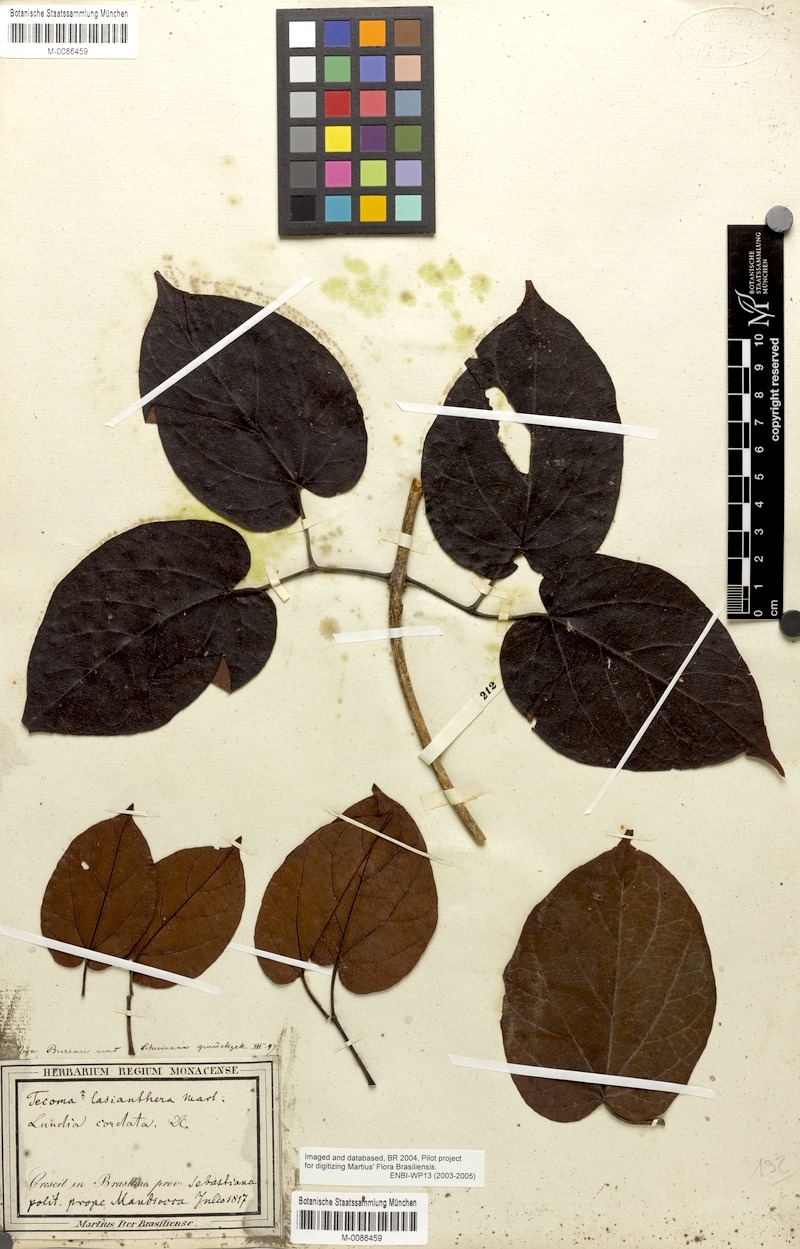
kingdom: Plantae
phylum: Tracheophyta
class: Magnoliopsida
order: Lamiales
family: Bignoniaceae
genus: Lundia
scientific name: Lundia longa
